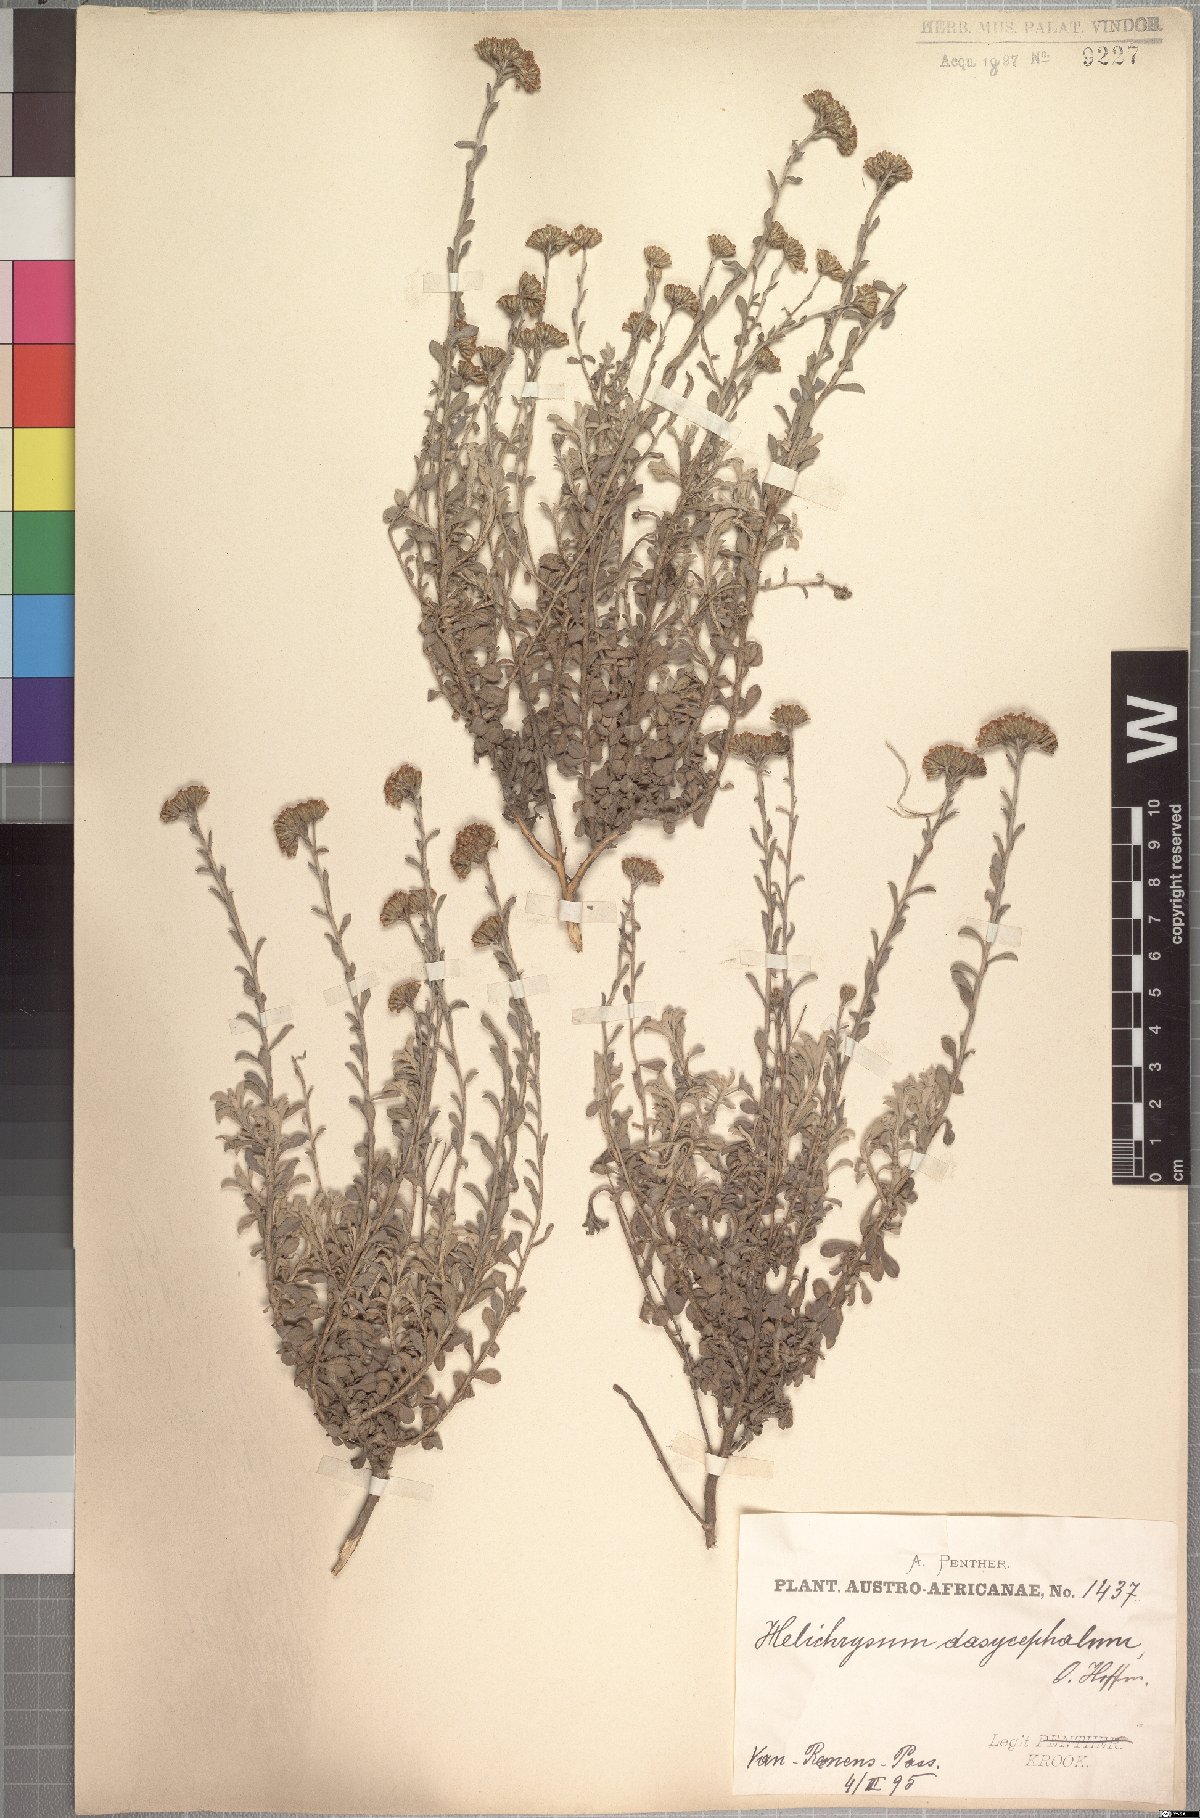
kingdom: Plantae
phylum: Tracheophyta
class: Magnoliopsida
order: Asterales
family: Asteraceae
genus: Helichrysum
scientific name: Helichrysum dasycephalum
